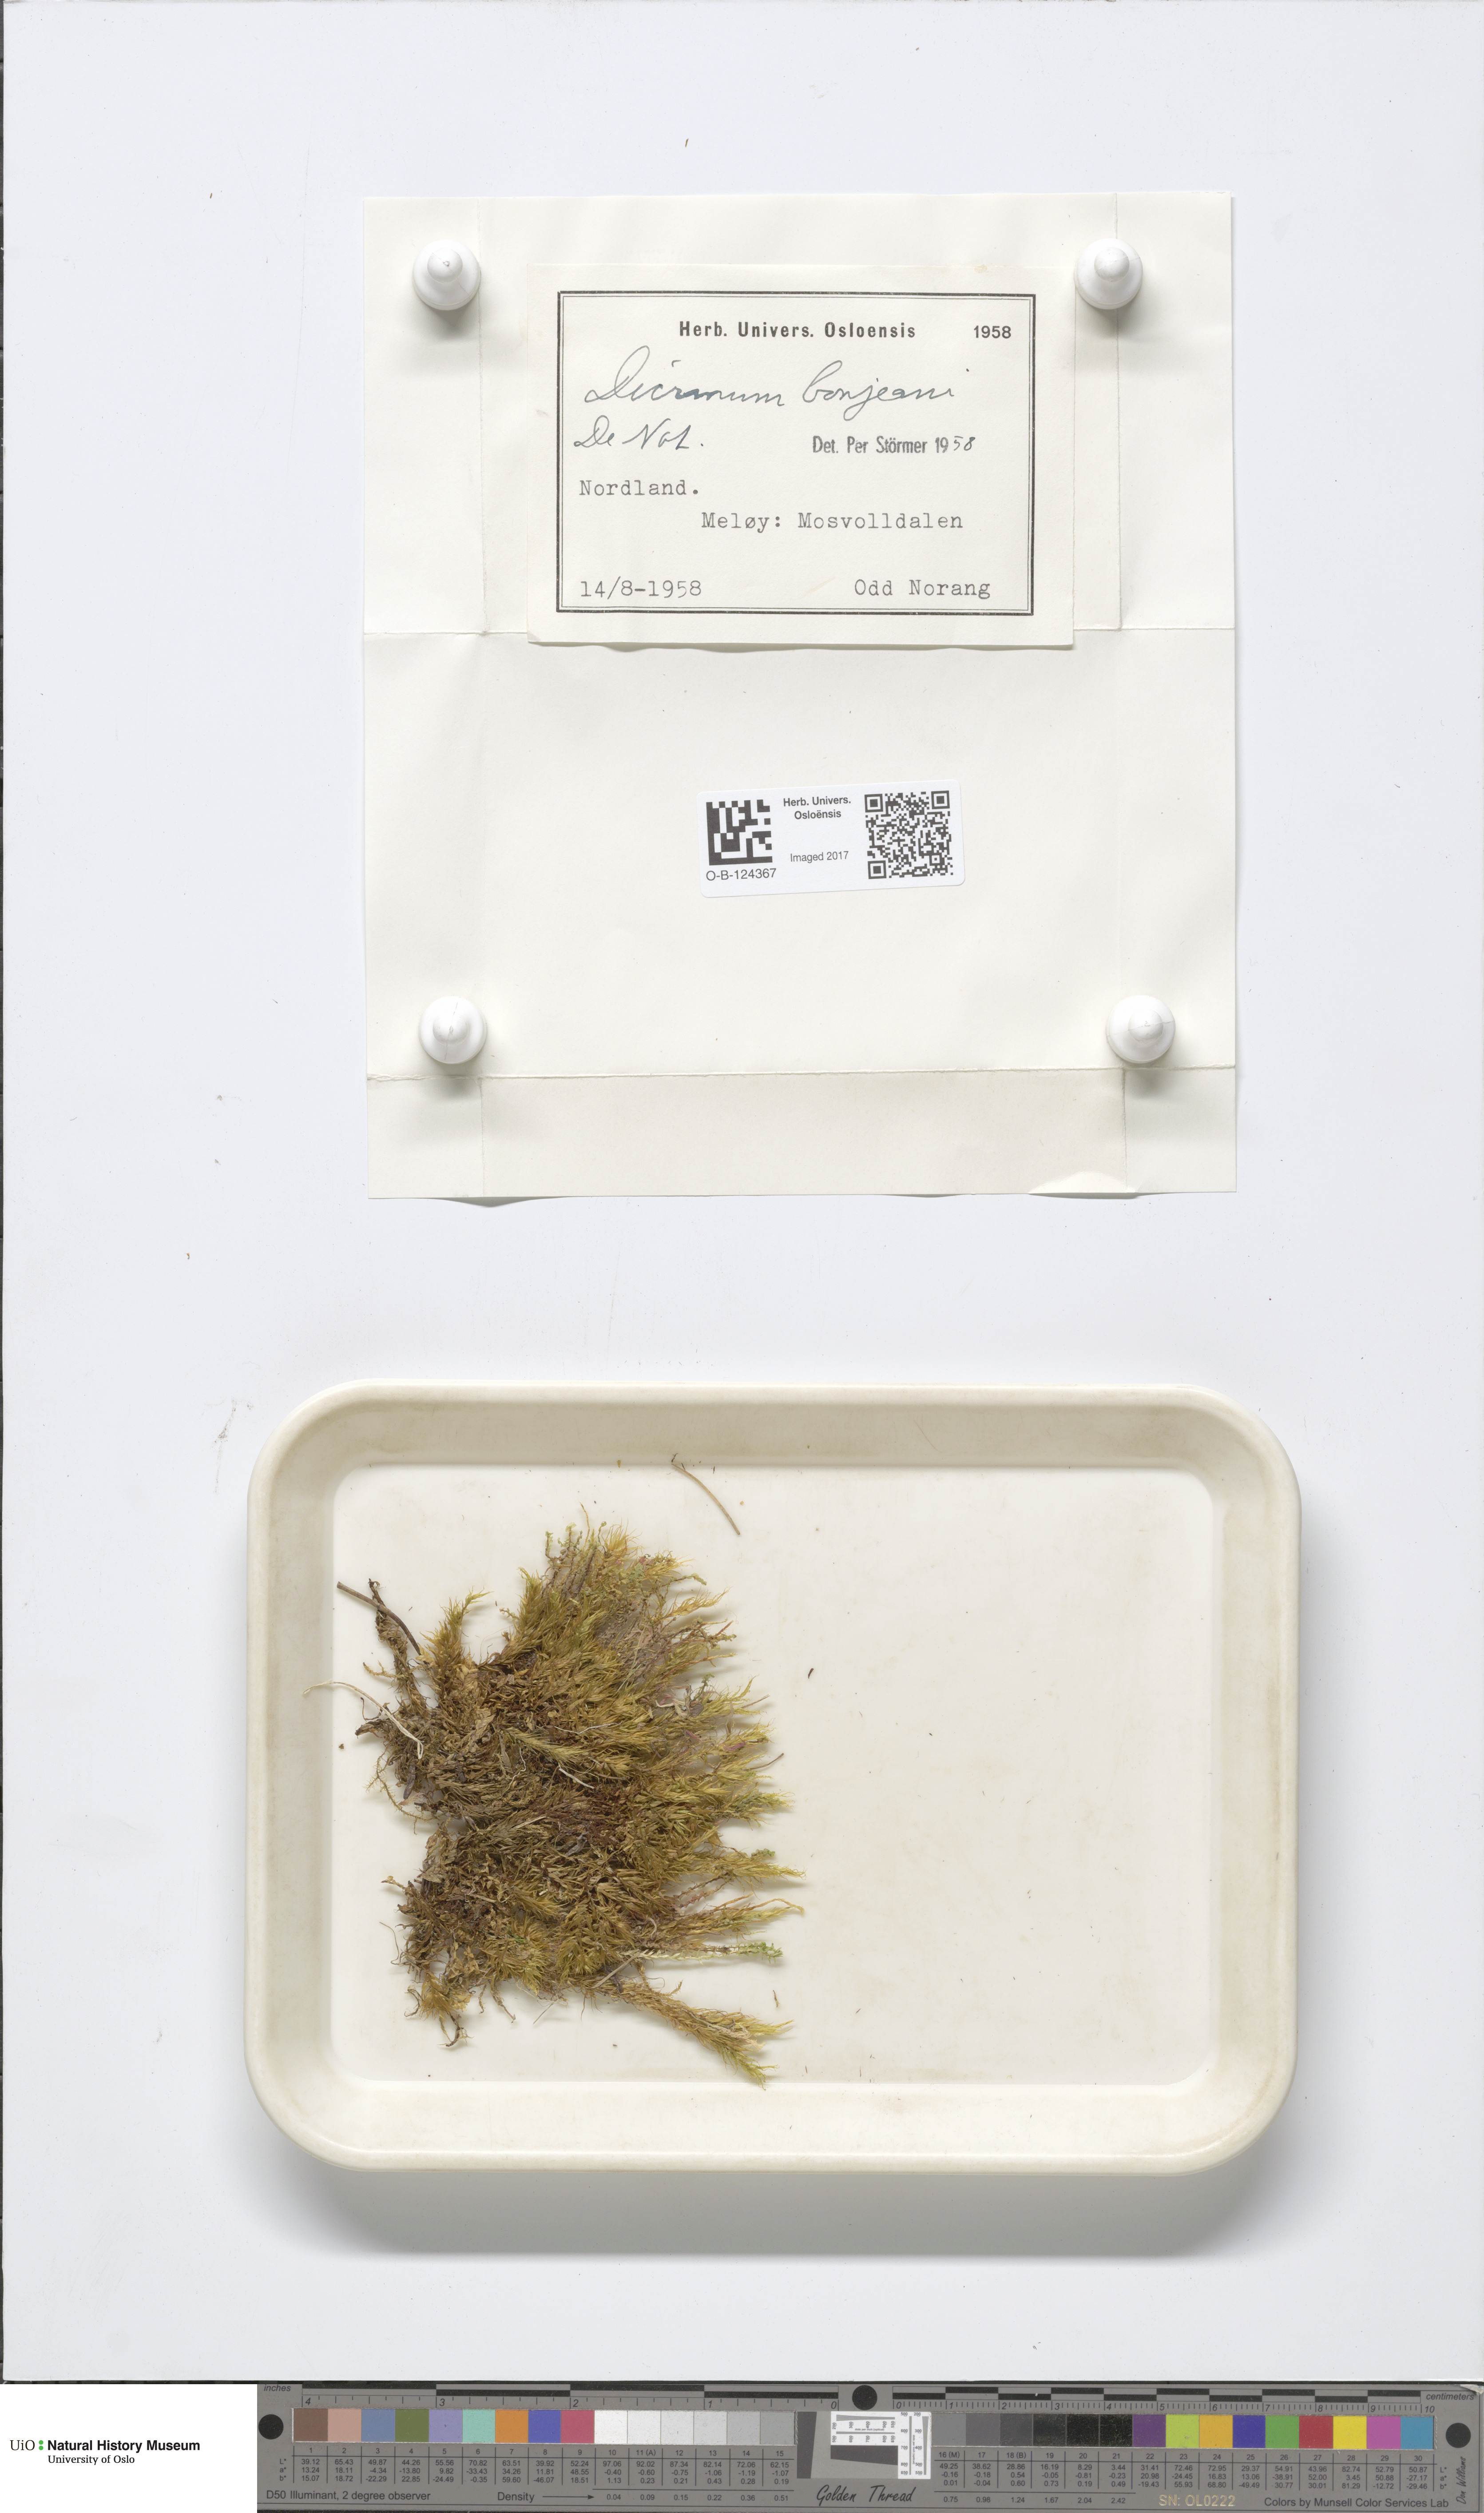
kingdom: Plantae
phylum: Bryophyta
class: Bryopsida
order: Dicranales
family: Dicranaceae
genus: Dicranum
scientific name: Dicranum bonjeanii
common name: Bonjean's broom moss
